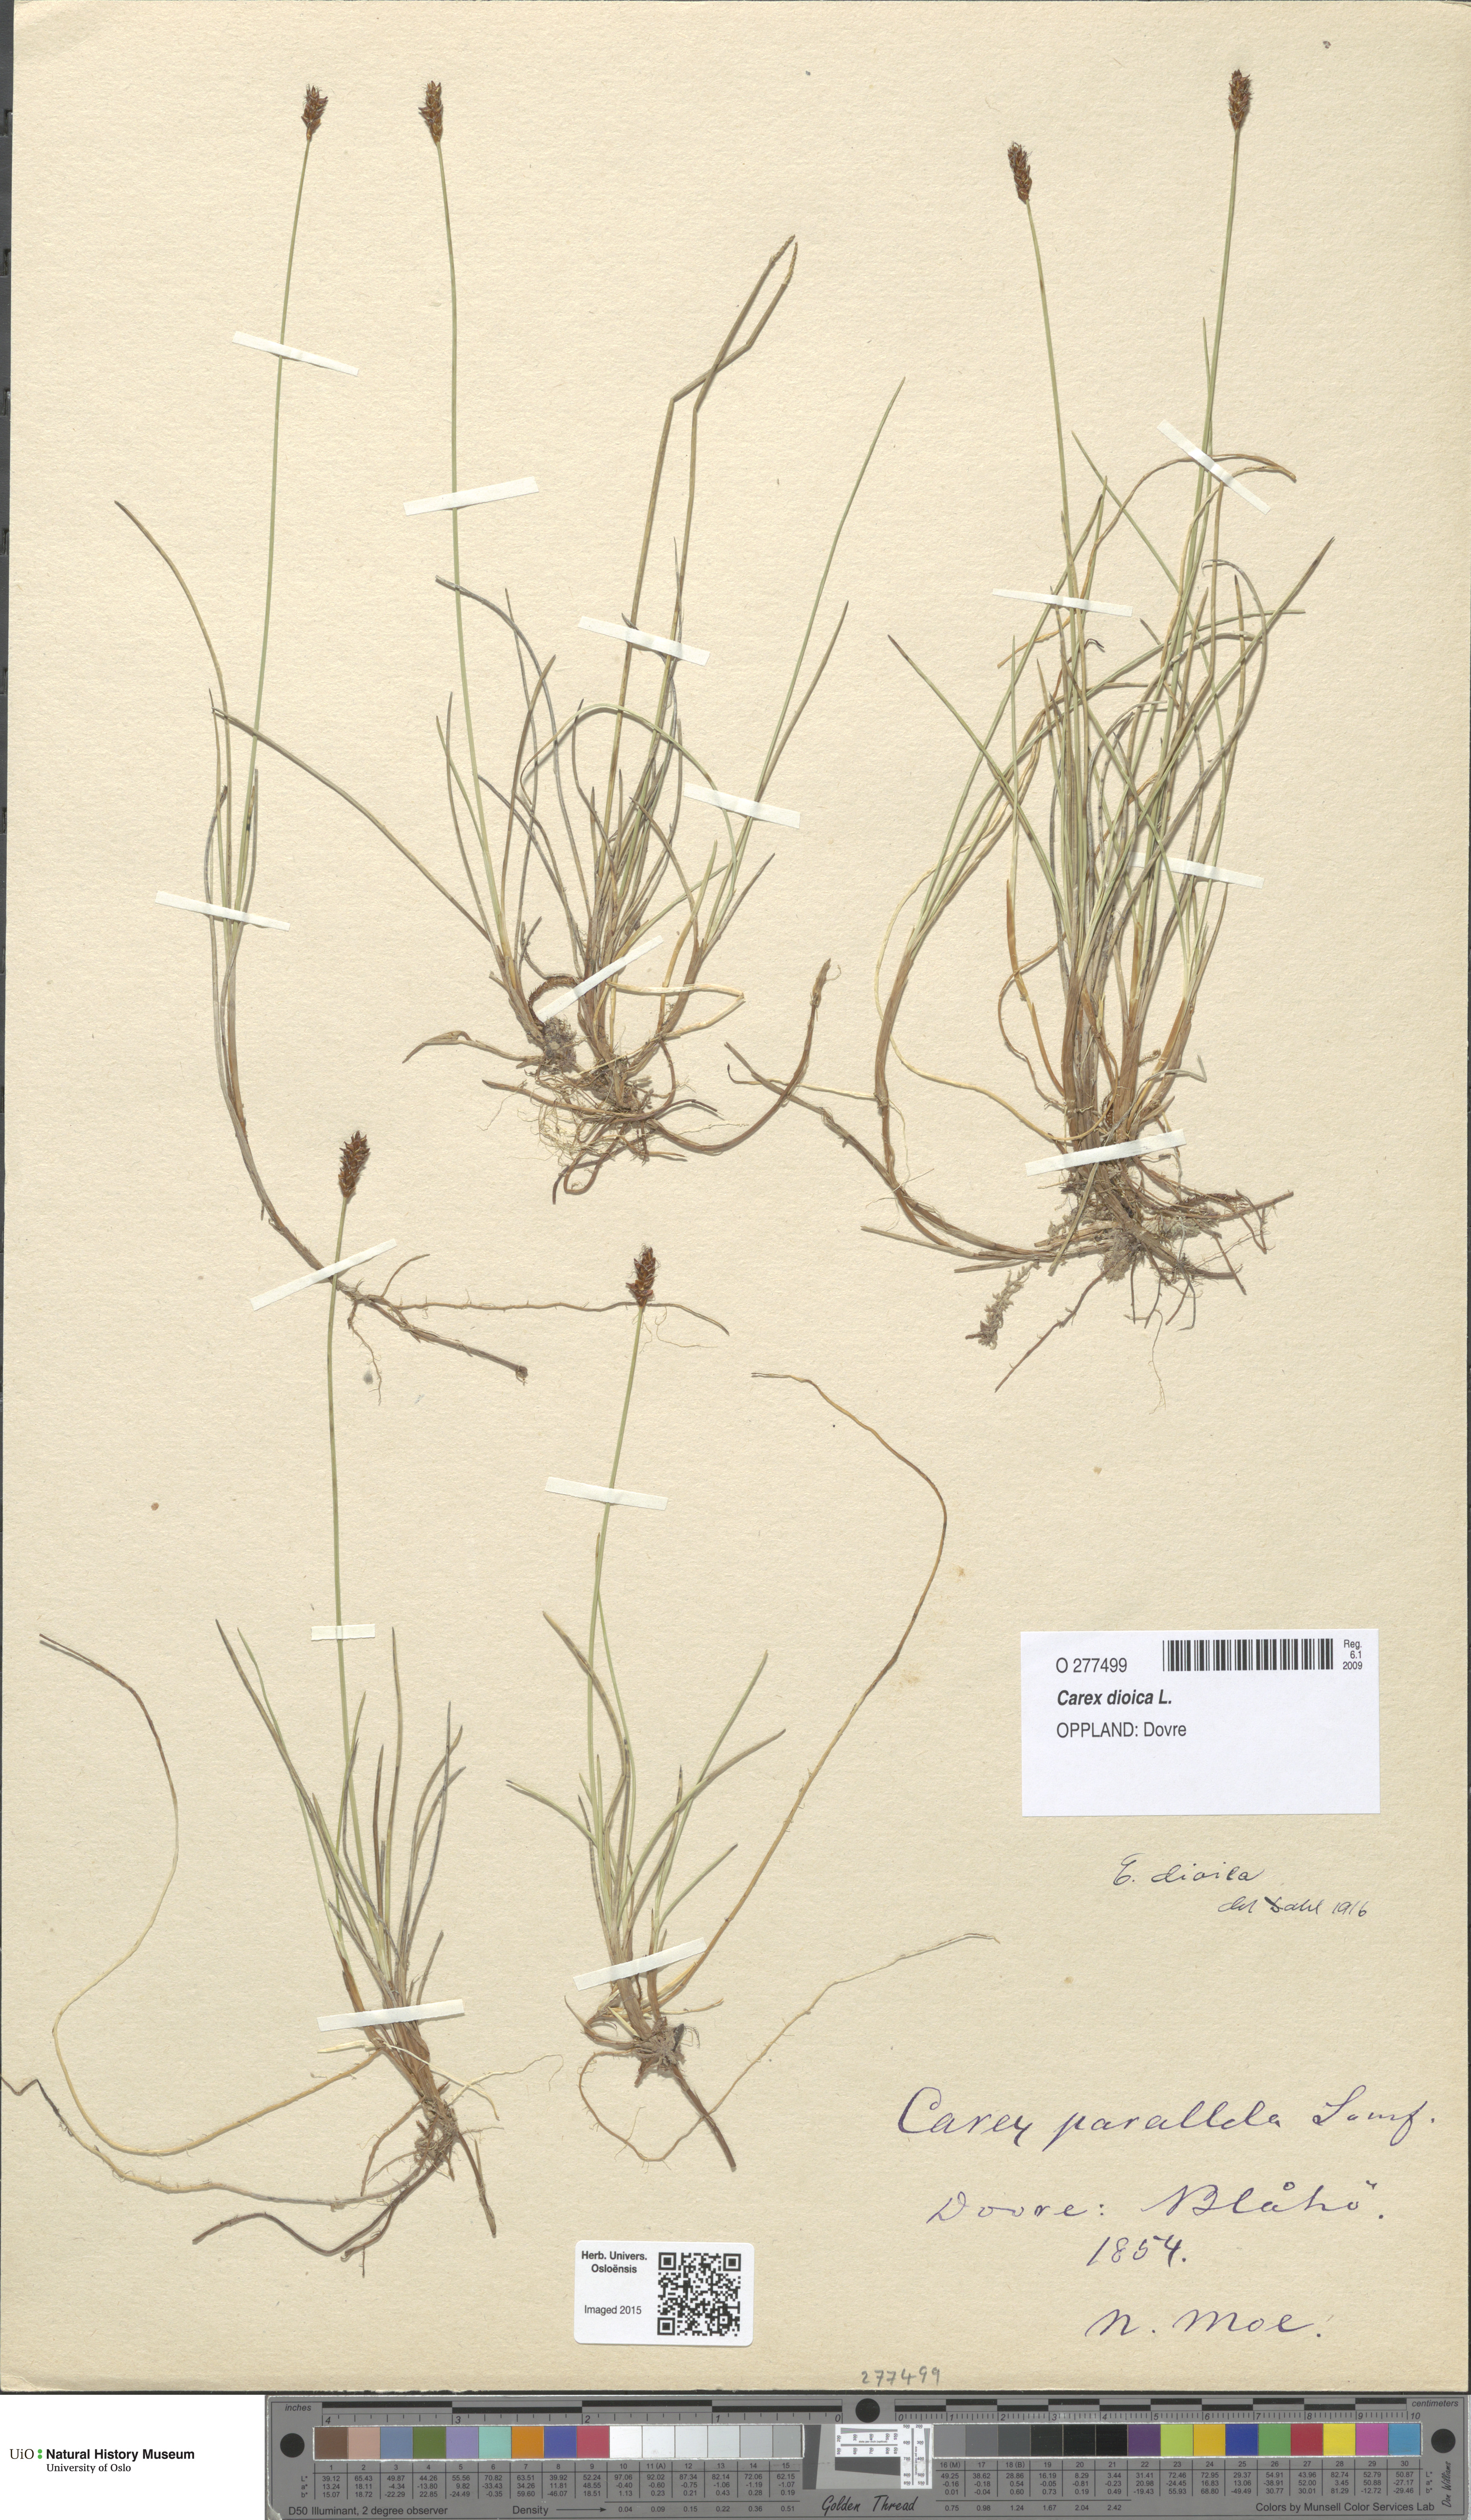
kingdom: Plantae
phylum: Tracheophyta
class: Liliopsida
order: Poales
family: Cyperaceae
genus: Carex
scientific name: Carex dioica
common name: Dioecious sedge
